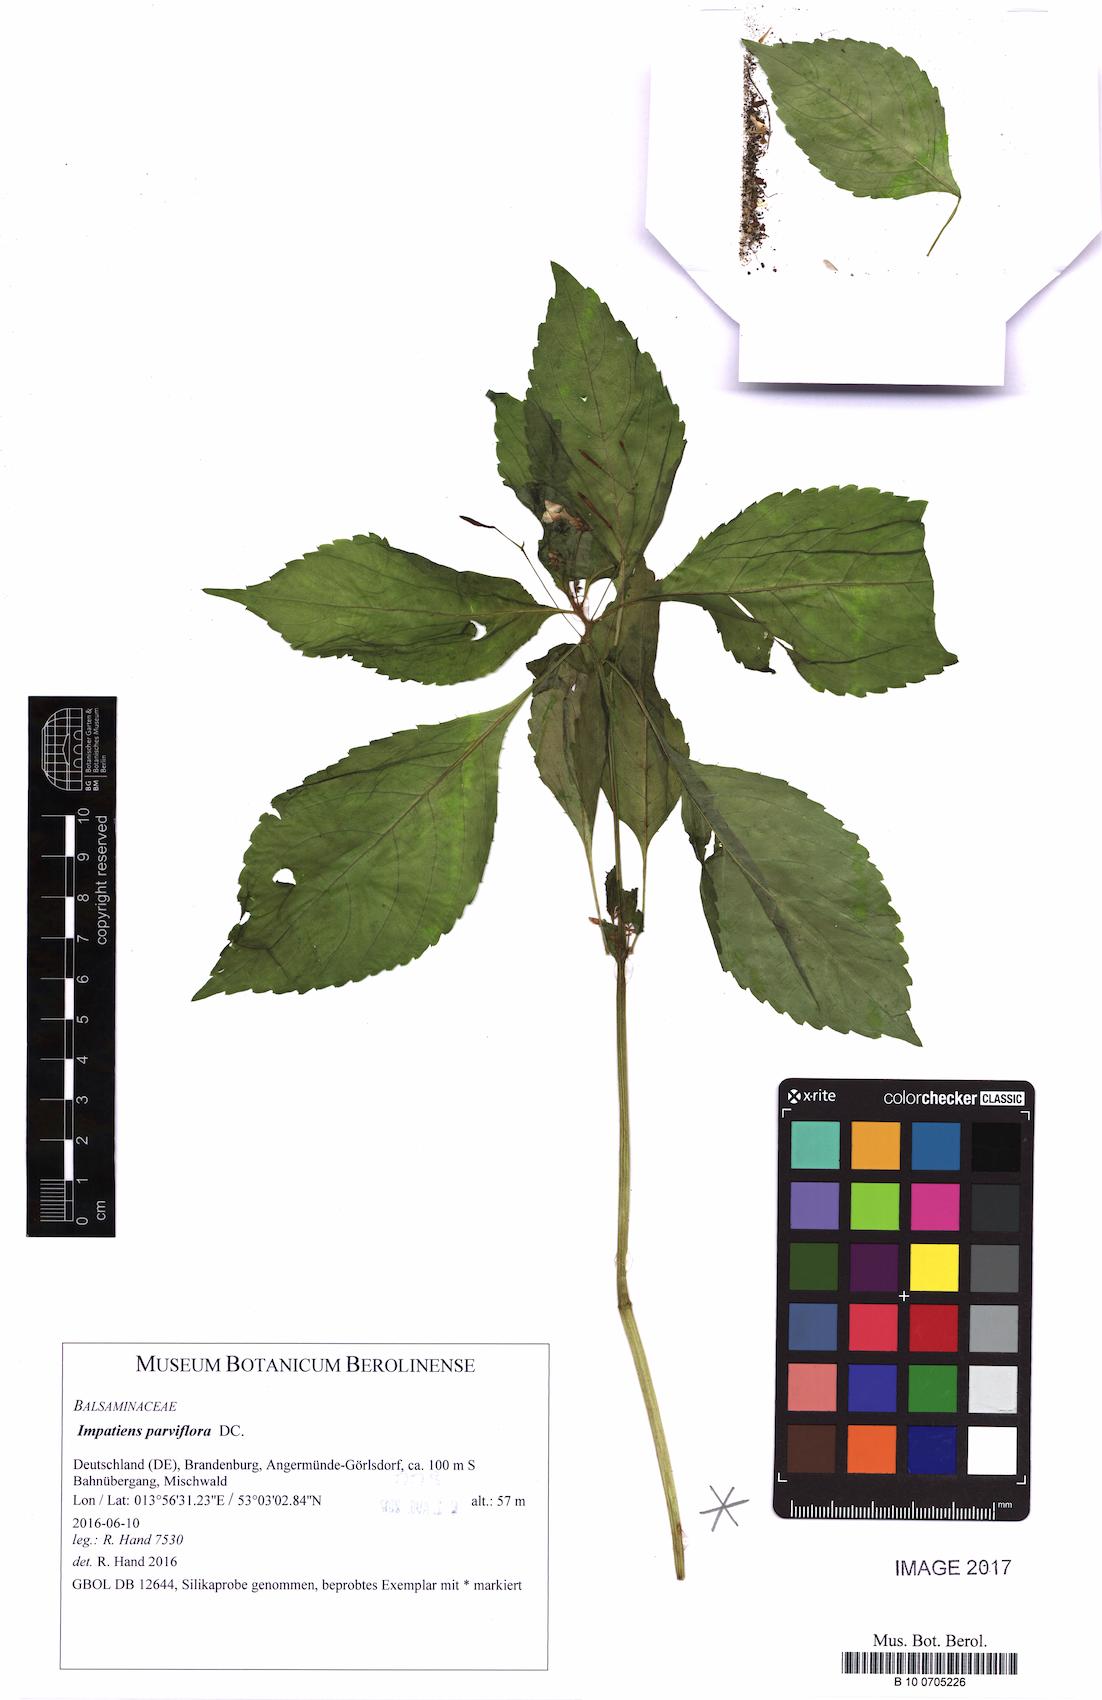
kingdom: Plantae
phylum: Tracheophyta
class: Magnoliopsida
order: Ericales
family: Balsaminaceae
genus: Impatiens
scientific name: Impatiens parviflora
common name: Small balsam
